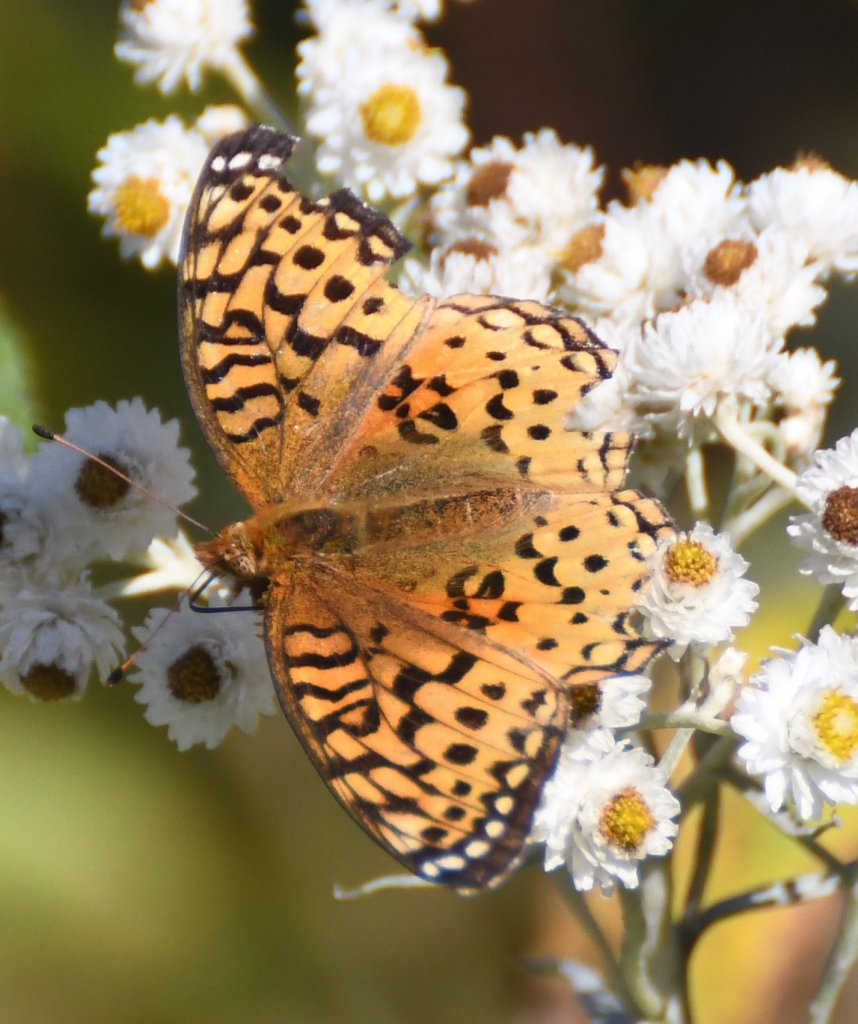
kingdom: Animalia
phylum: Arthropoda
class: Insecta
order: Lepidoptera
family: Nymphalidae
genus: Speyeria
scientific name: Speyeria aphrodite
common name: Aphrodite Fritillary
